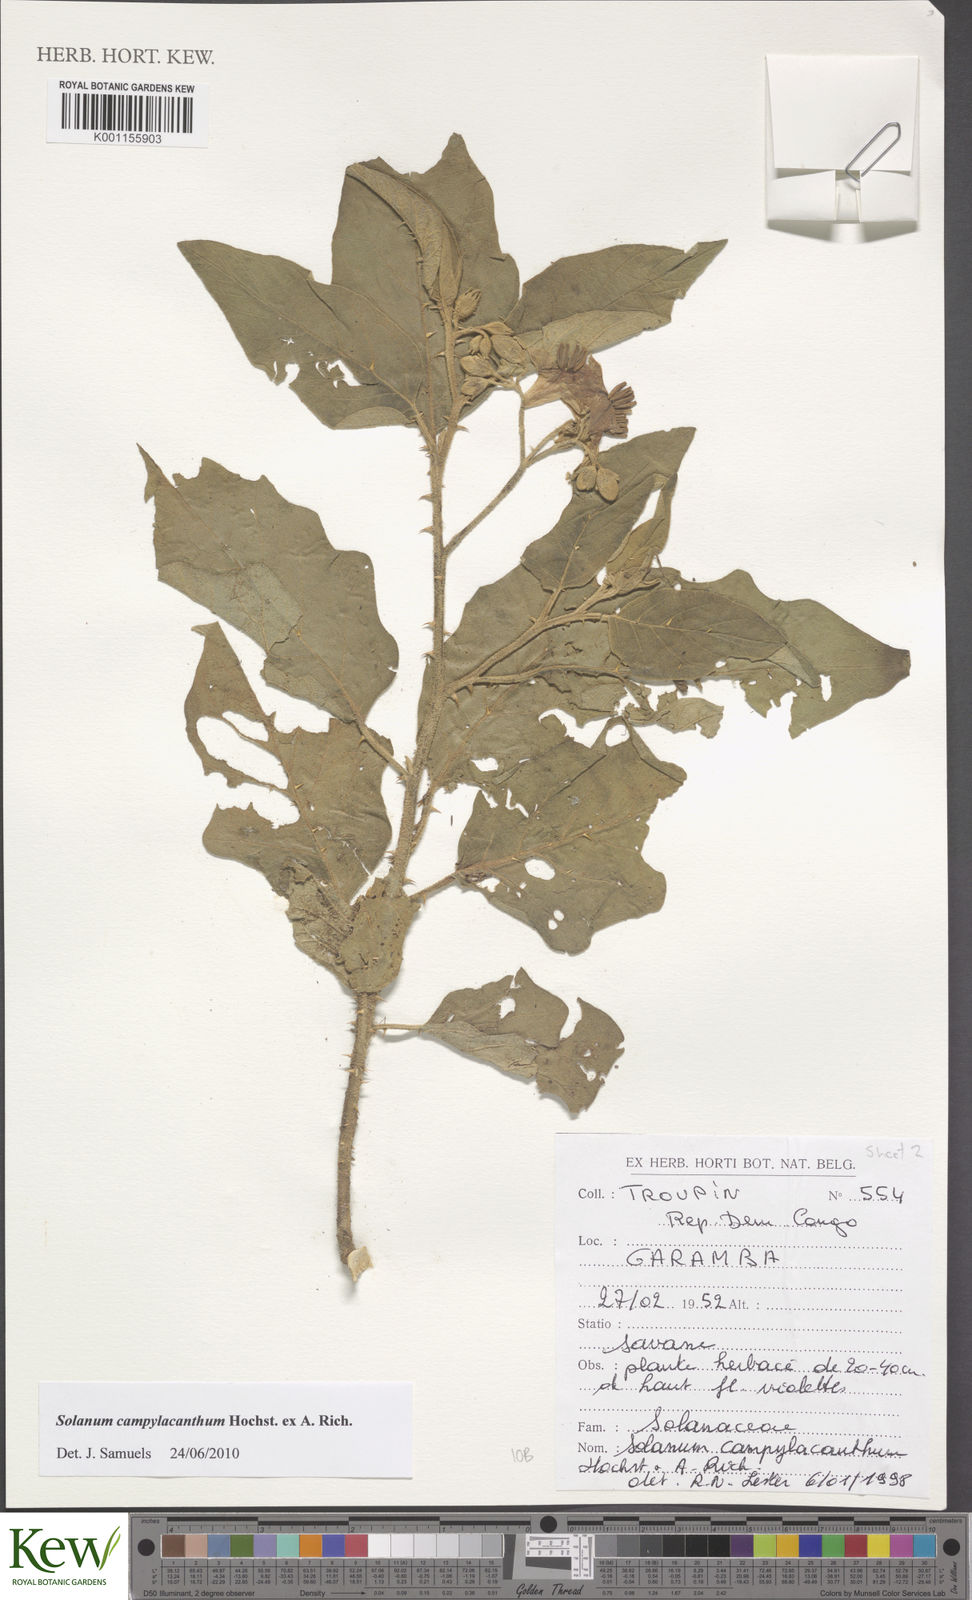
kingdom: Plantae
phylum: Tracheophyta
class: Magnoliopsida
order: Solanales
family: Solanaceae
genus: Solanum
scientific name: Solanum campylacanthum
